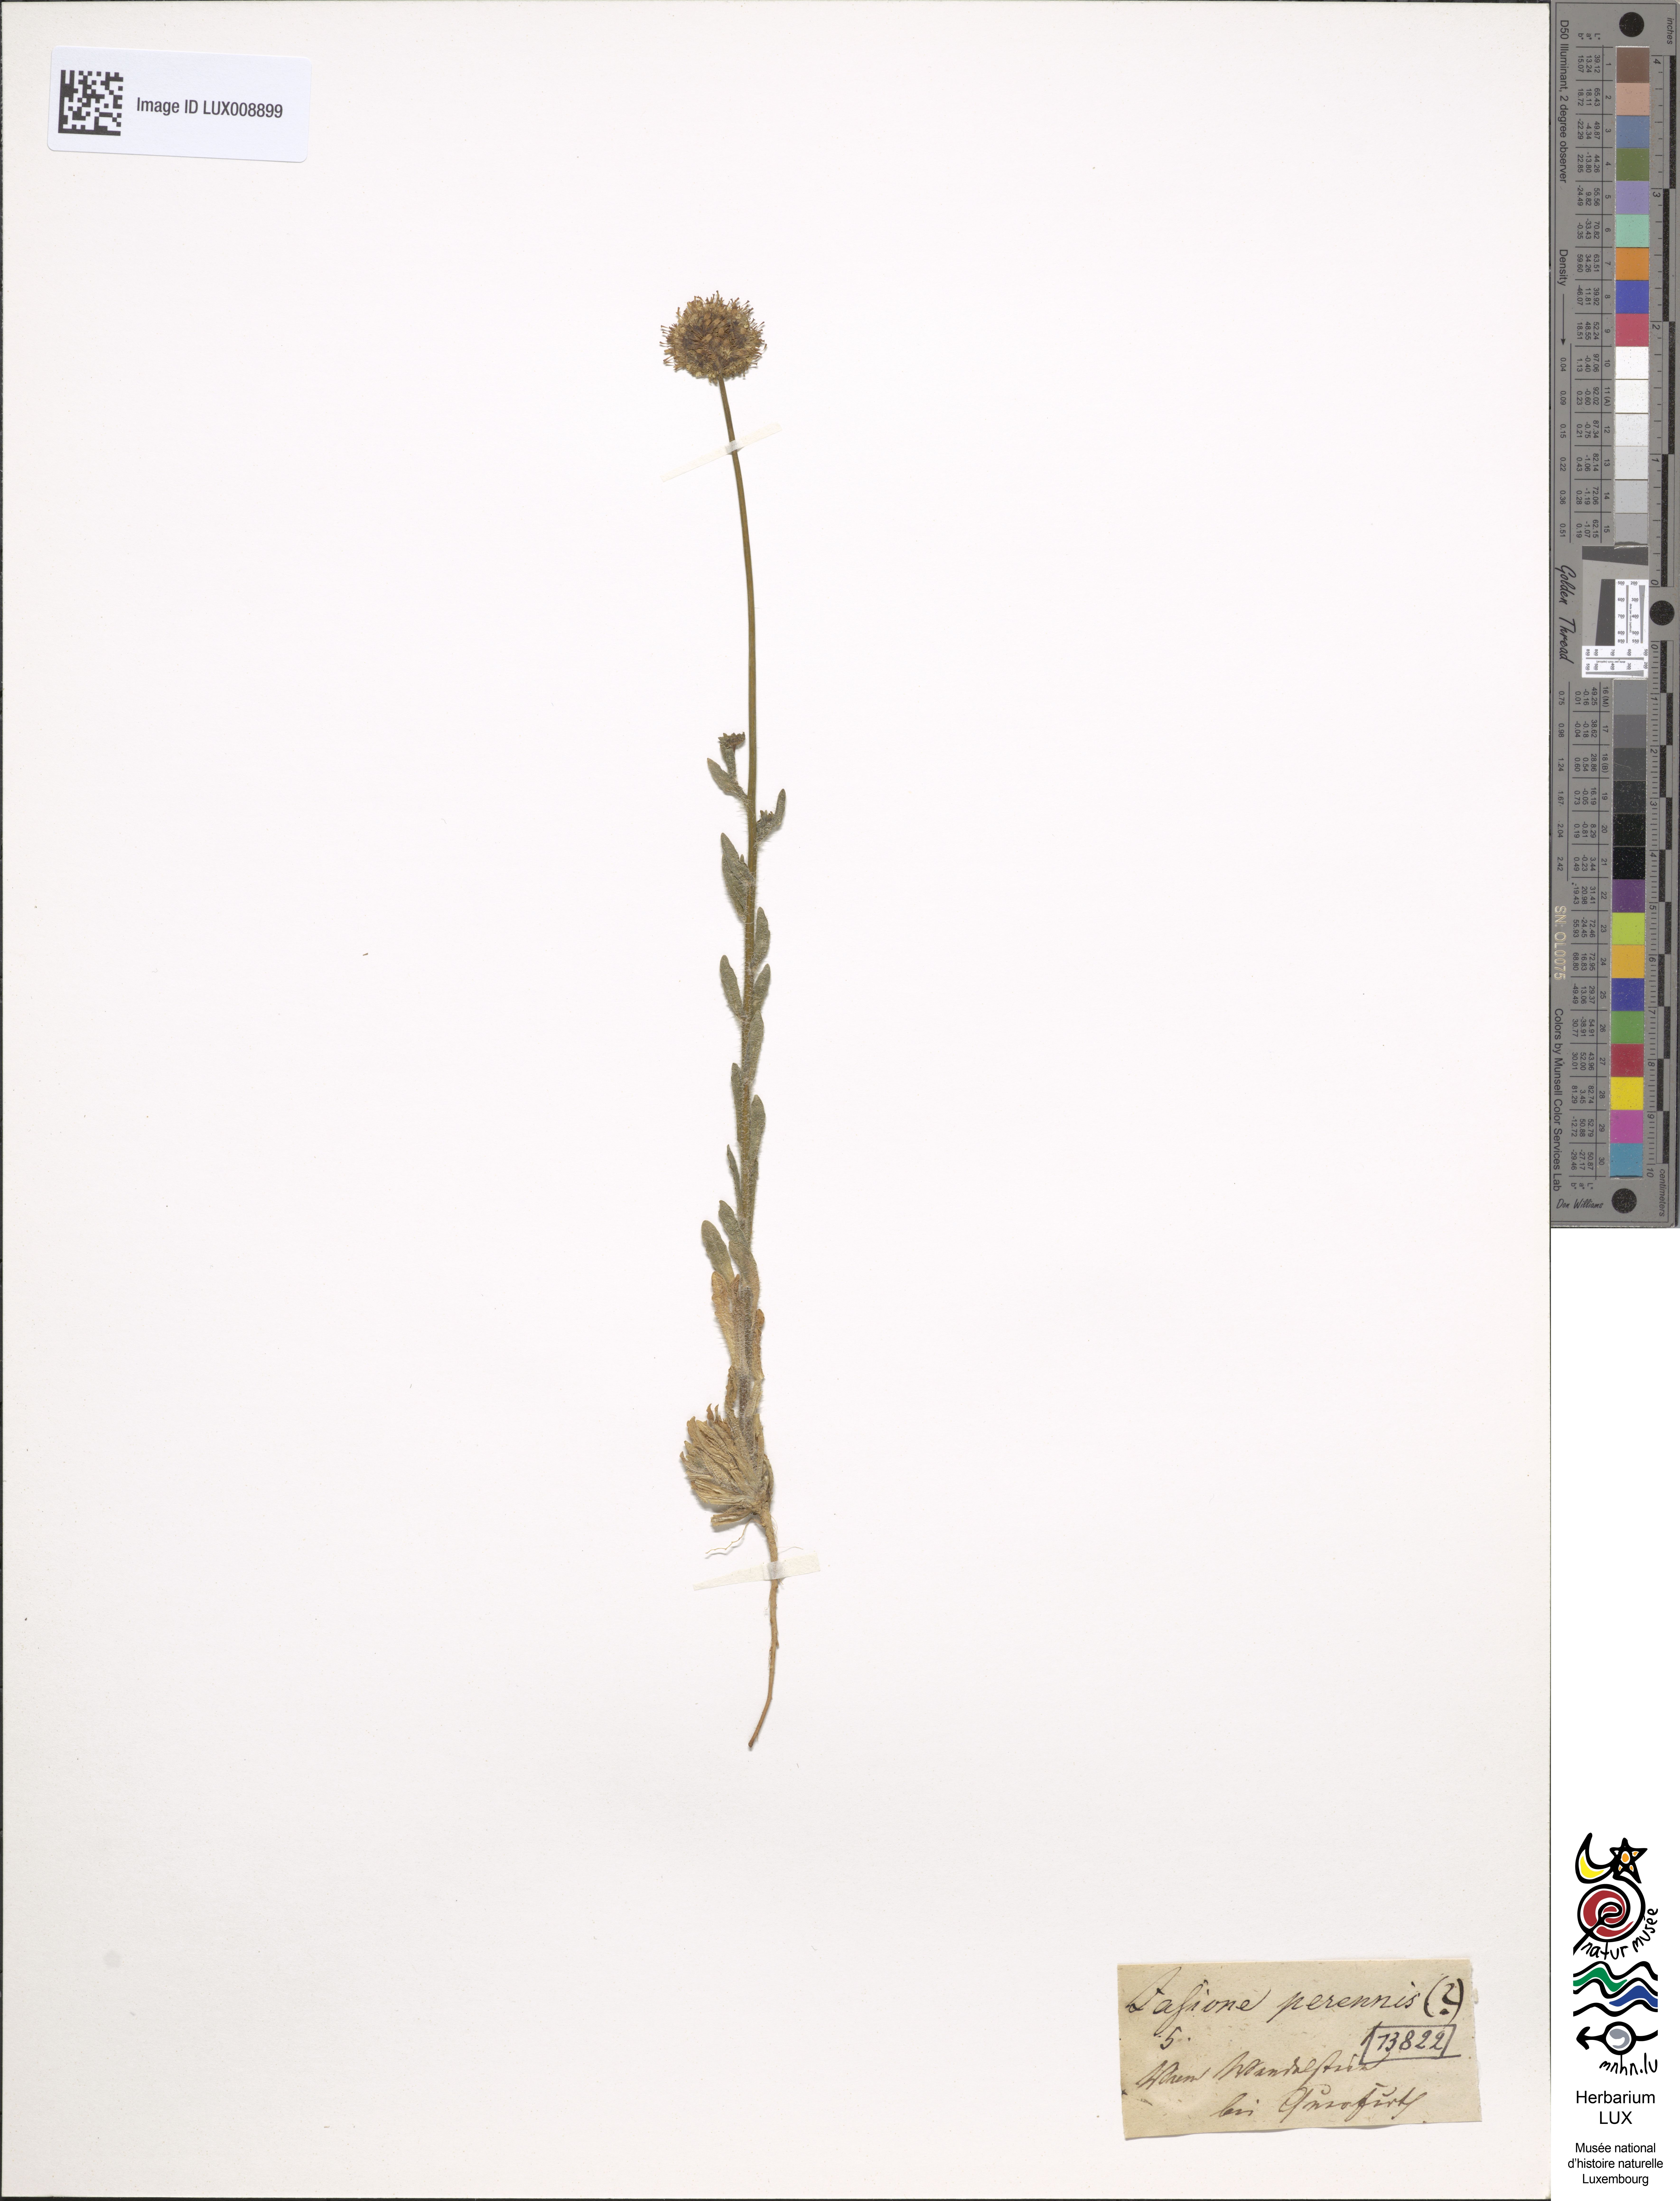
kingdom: Plantae
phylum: Tracheophyta
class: Magnoliopsida
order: Asterales
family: Campanulaceae
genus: Jasione
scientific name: Jasione montana
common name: Sheep's-bit
